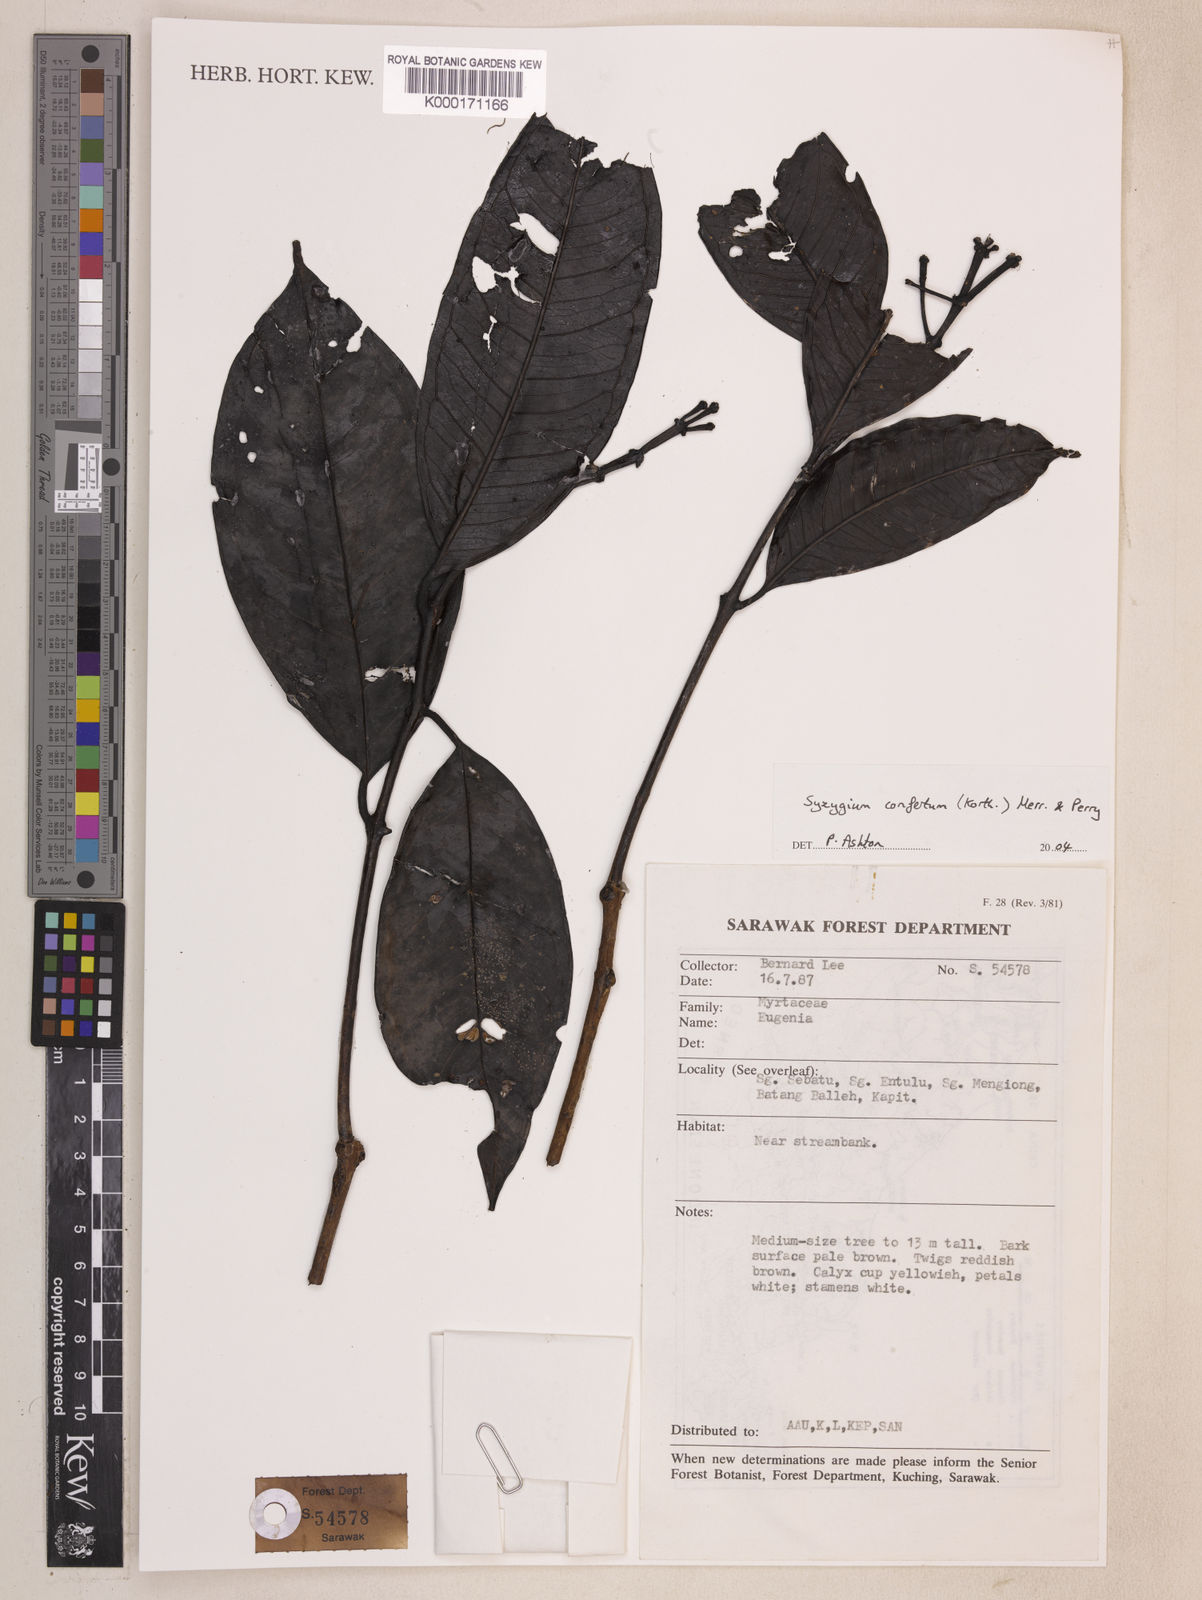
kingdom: Plantae
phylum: Tracheophyta
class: Magnoliopsida
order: Myrtales
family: Myrtaceae
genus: Syzygium
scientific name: Syzygium confertum
